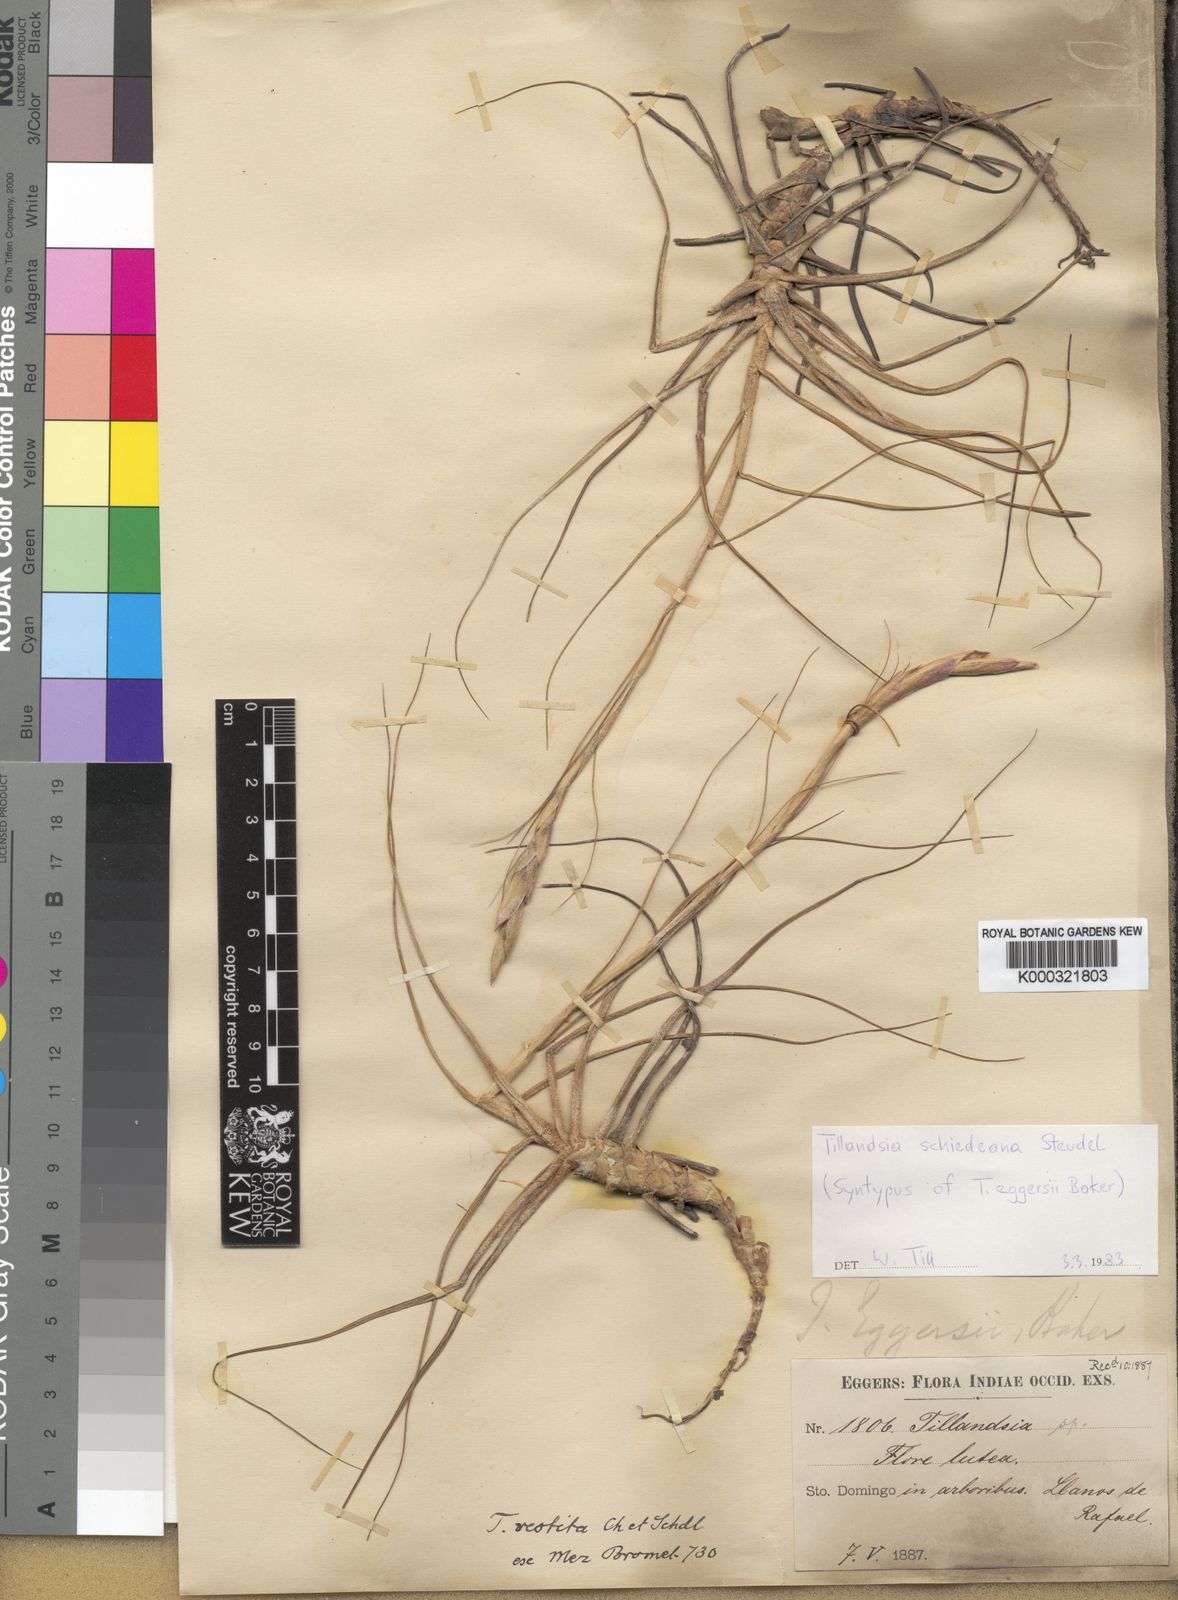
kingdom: Plantae
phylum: Tracheophyta
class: Liliopsida
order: Poales
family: Bromeliaceae
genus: Tillandsia
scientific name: Tillandsia
